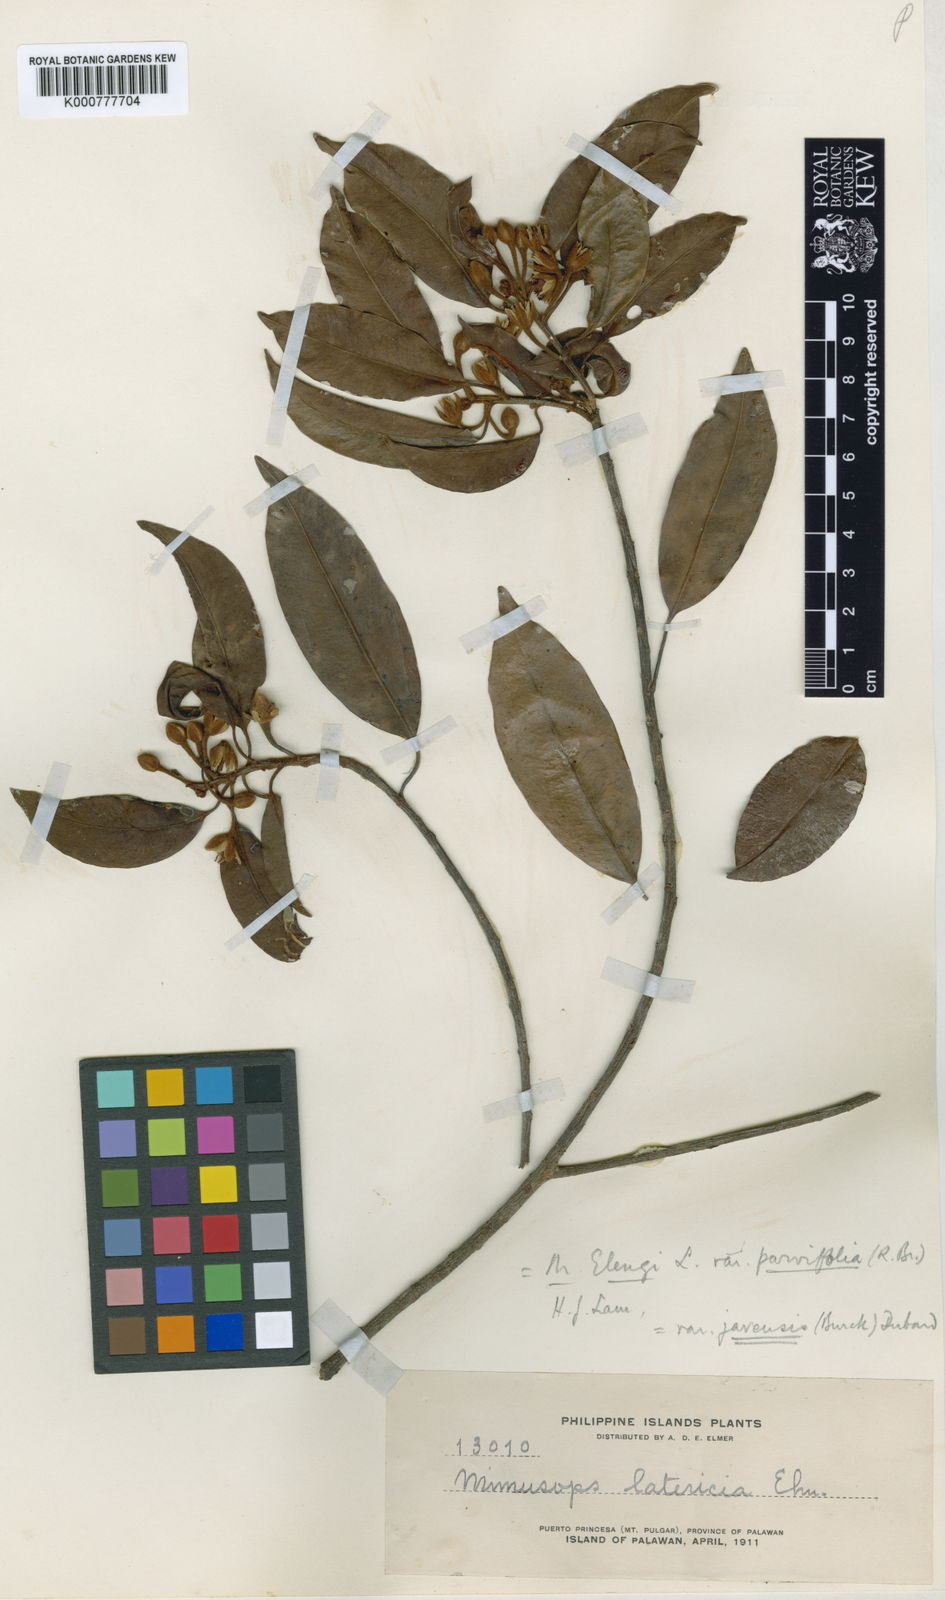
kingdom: Plantae
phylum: Tracheophyta
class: Magnoliopsida
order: Ericales
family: Sapotaceae
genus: Mimusops
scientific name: Mimusops elengi
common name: Spanish cherry
